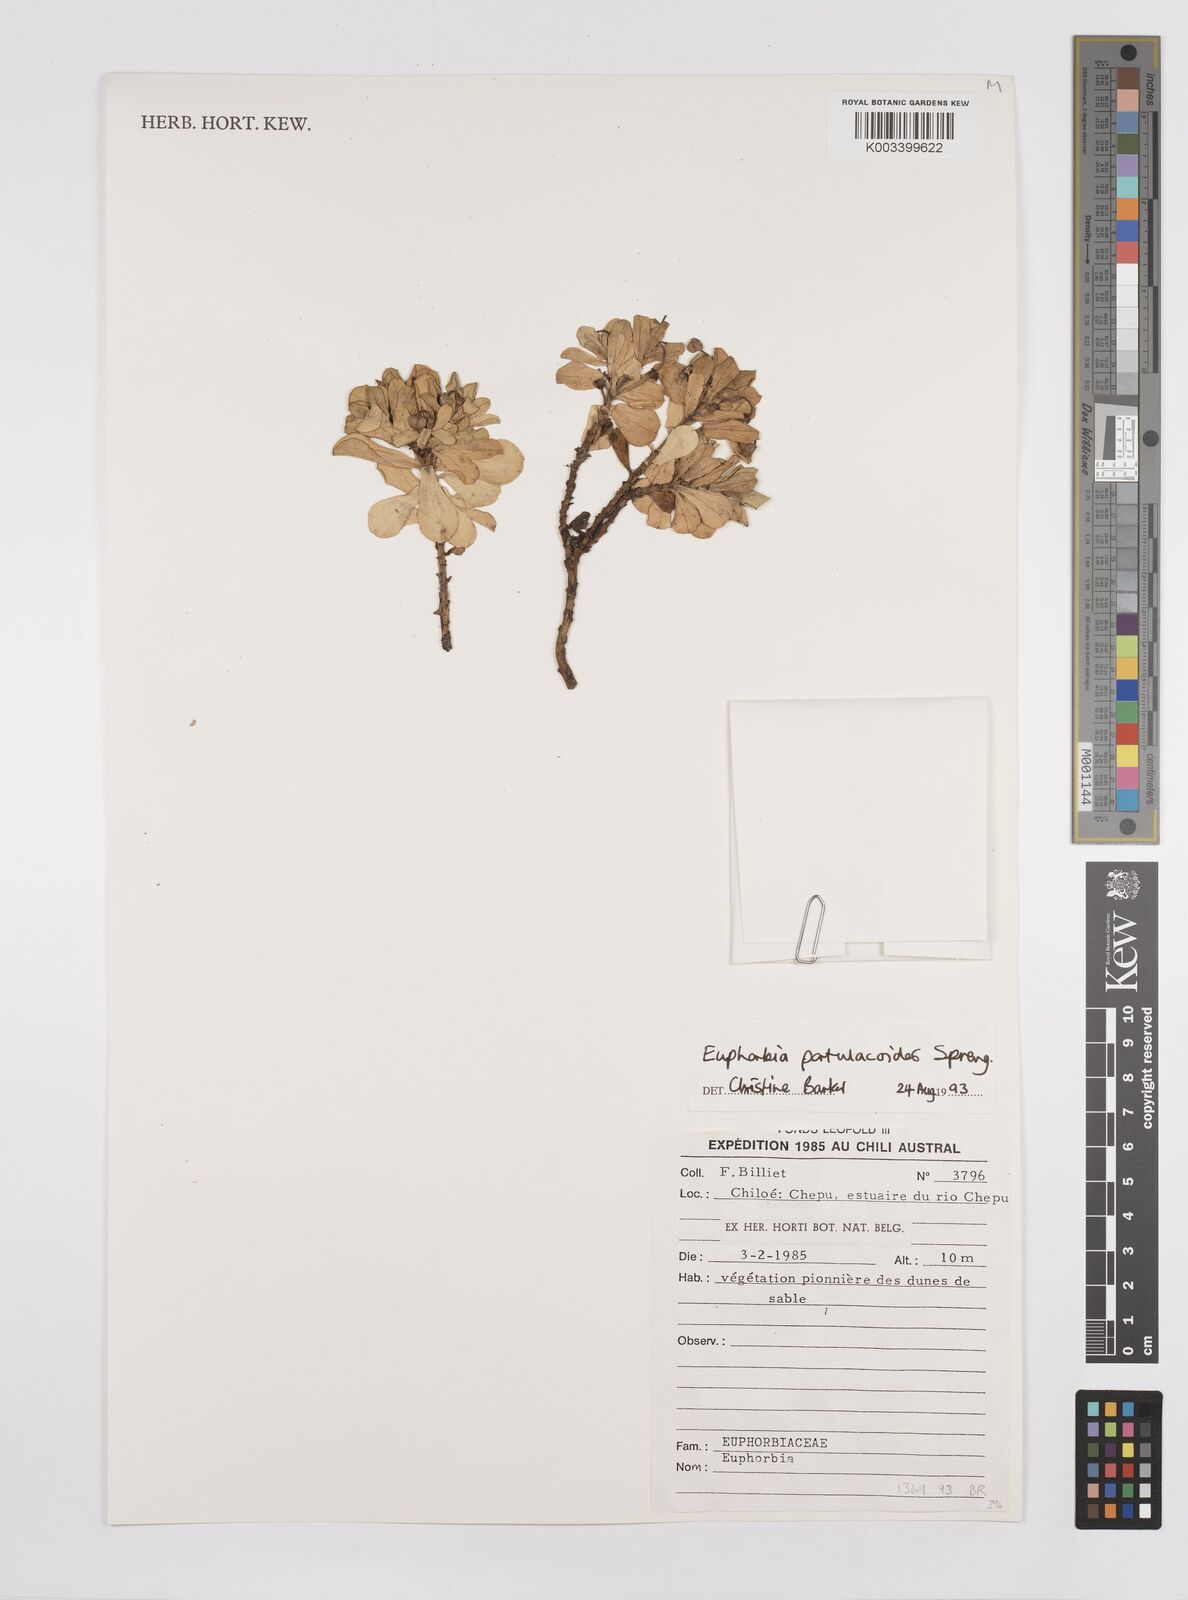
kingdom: Plantae
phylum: Tracheophyta
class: Magnoliopsida
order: Malpighiales
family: Euphorbiaceae
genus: Euphorbia
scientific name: Euphorbia portulacoides
